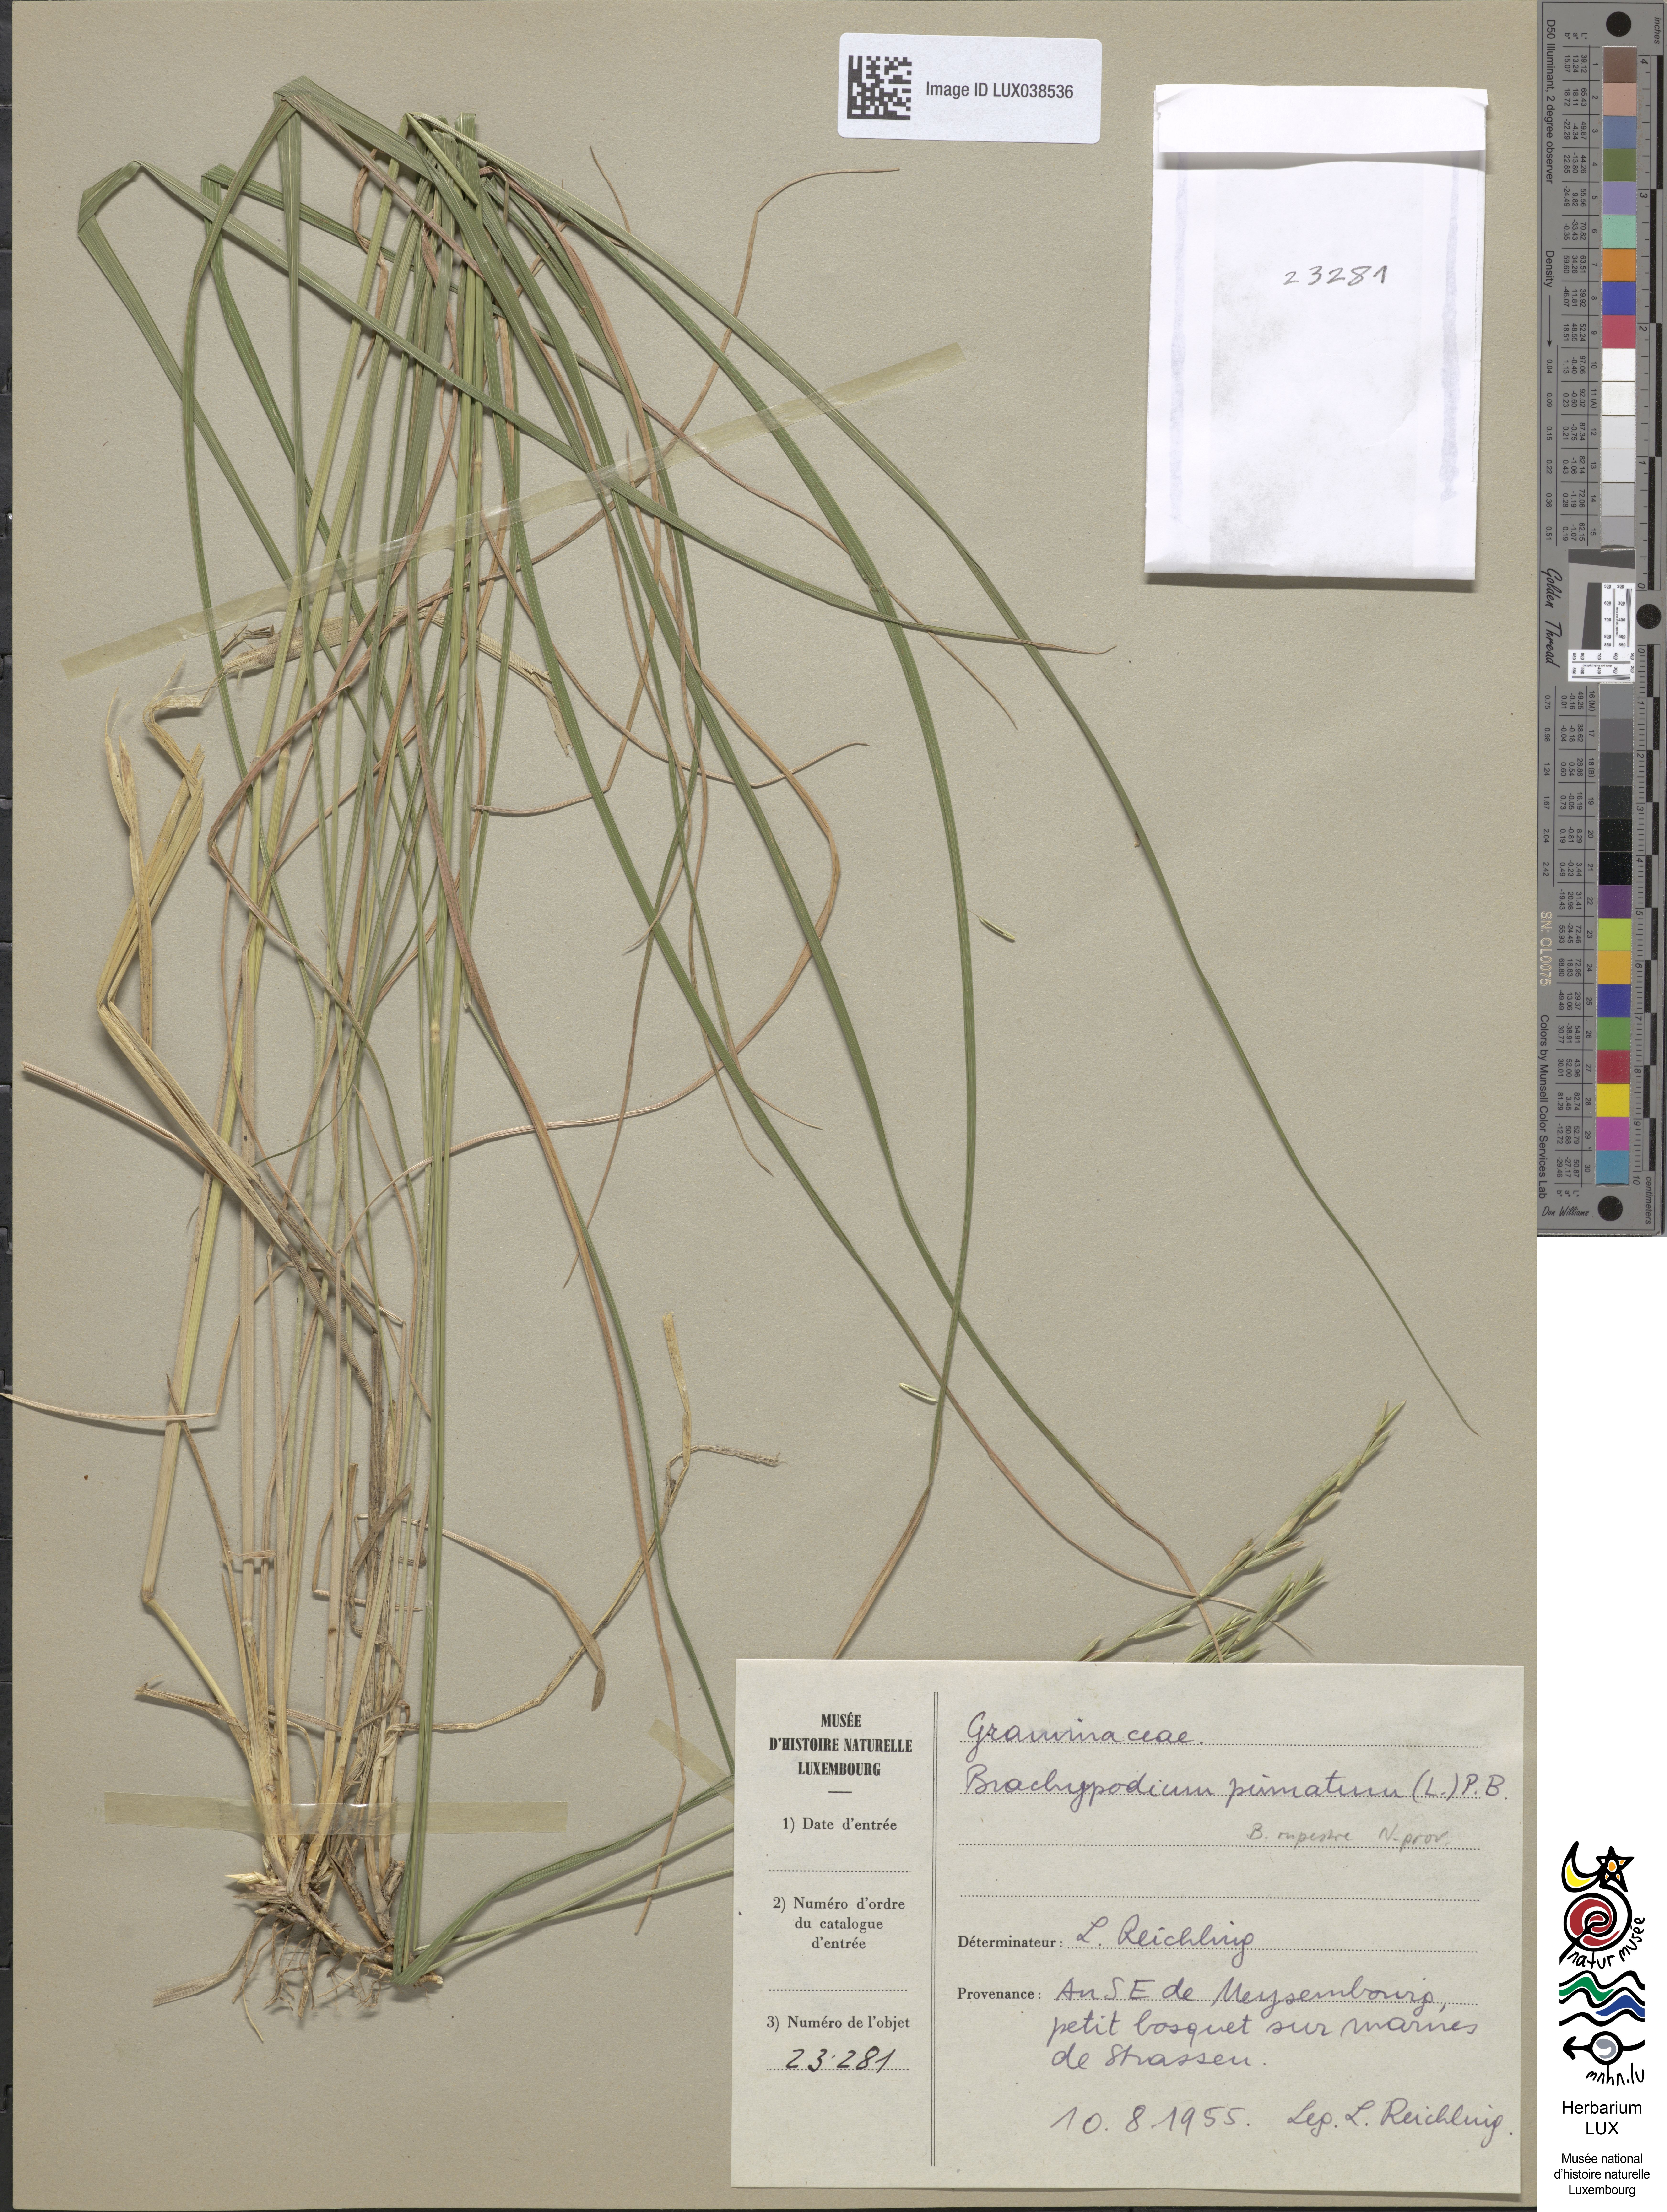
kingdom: Plantae
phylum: Tracheophyta
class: Liliopsida
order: Poales
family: Poaceae
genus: Brachypodium
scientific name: Brachypodium pinnatum
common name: Tor grass
